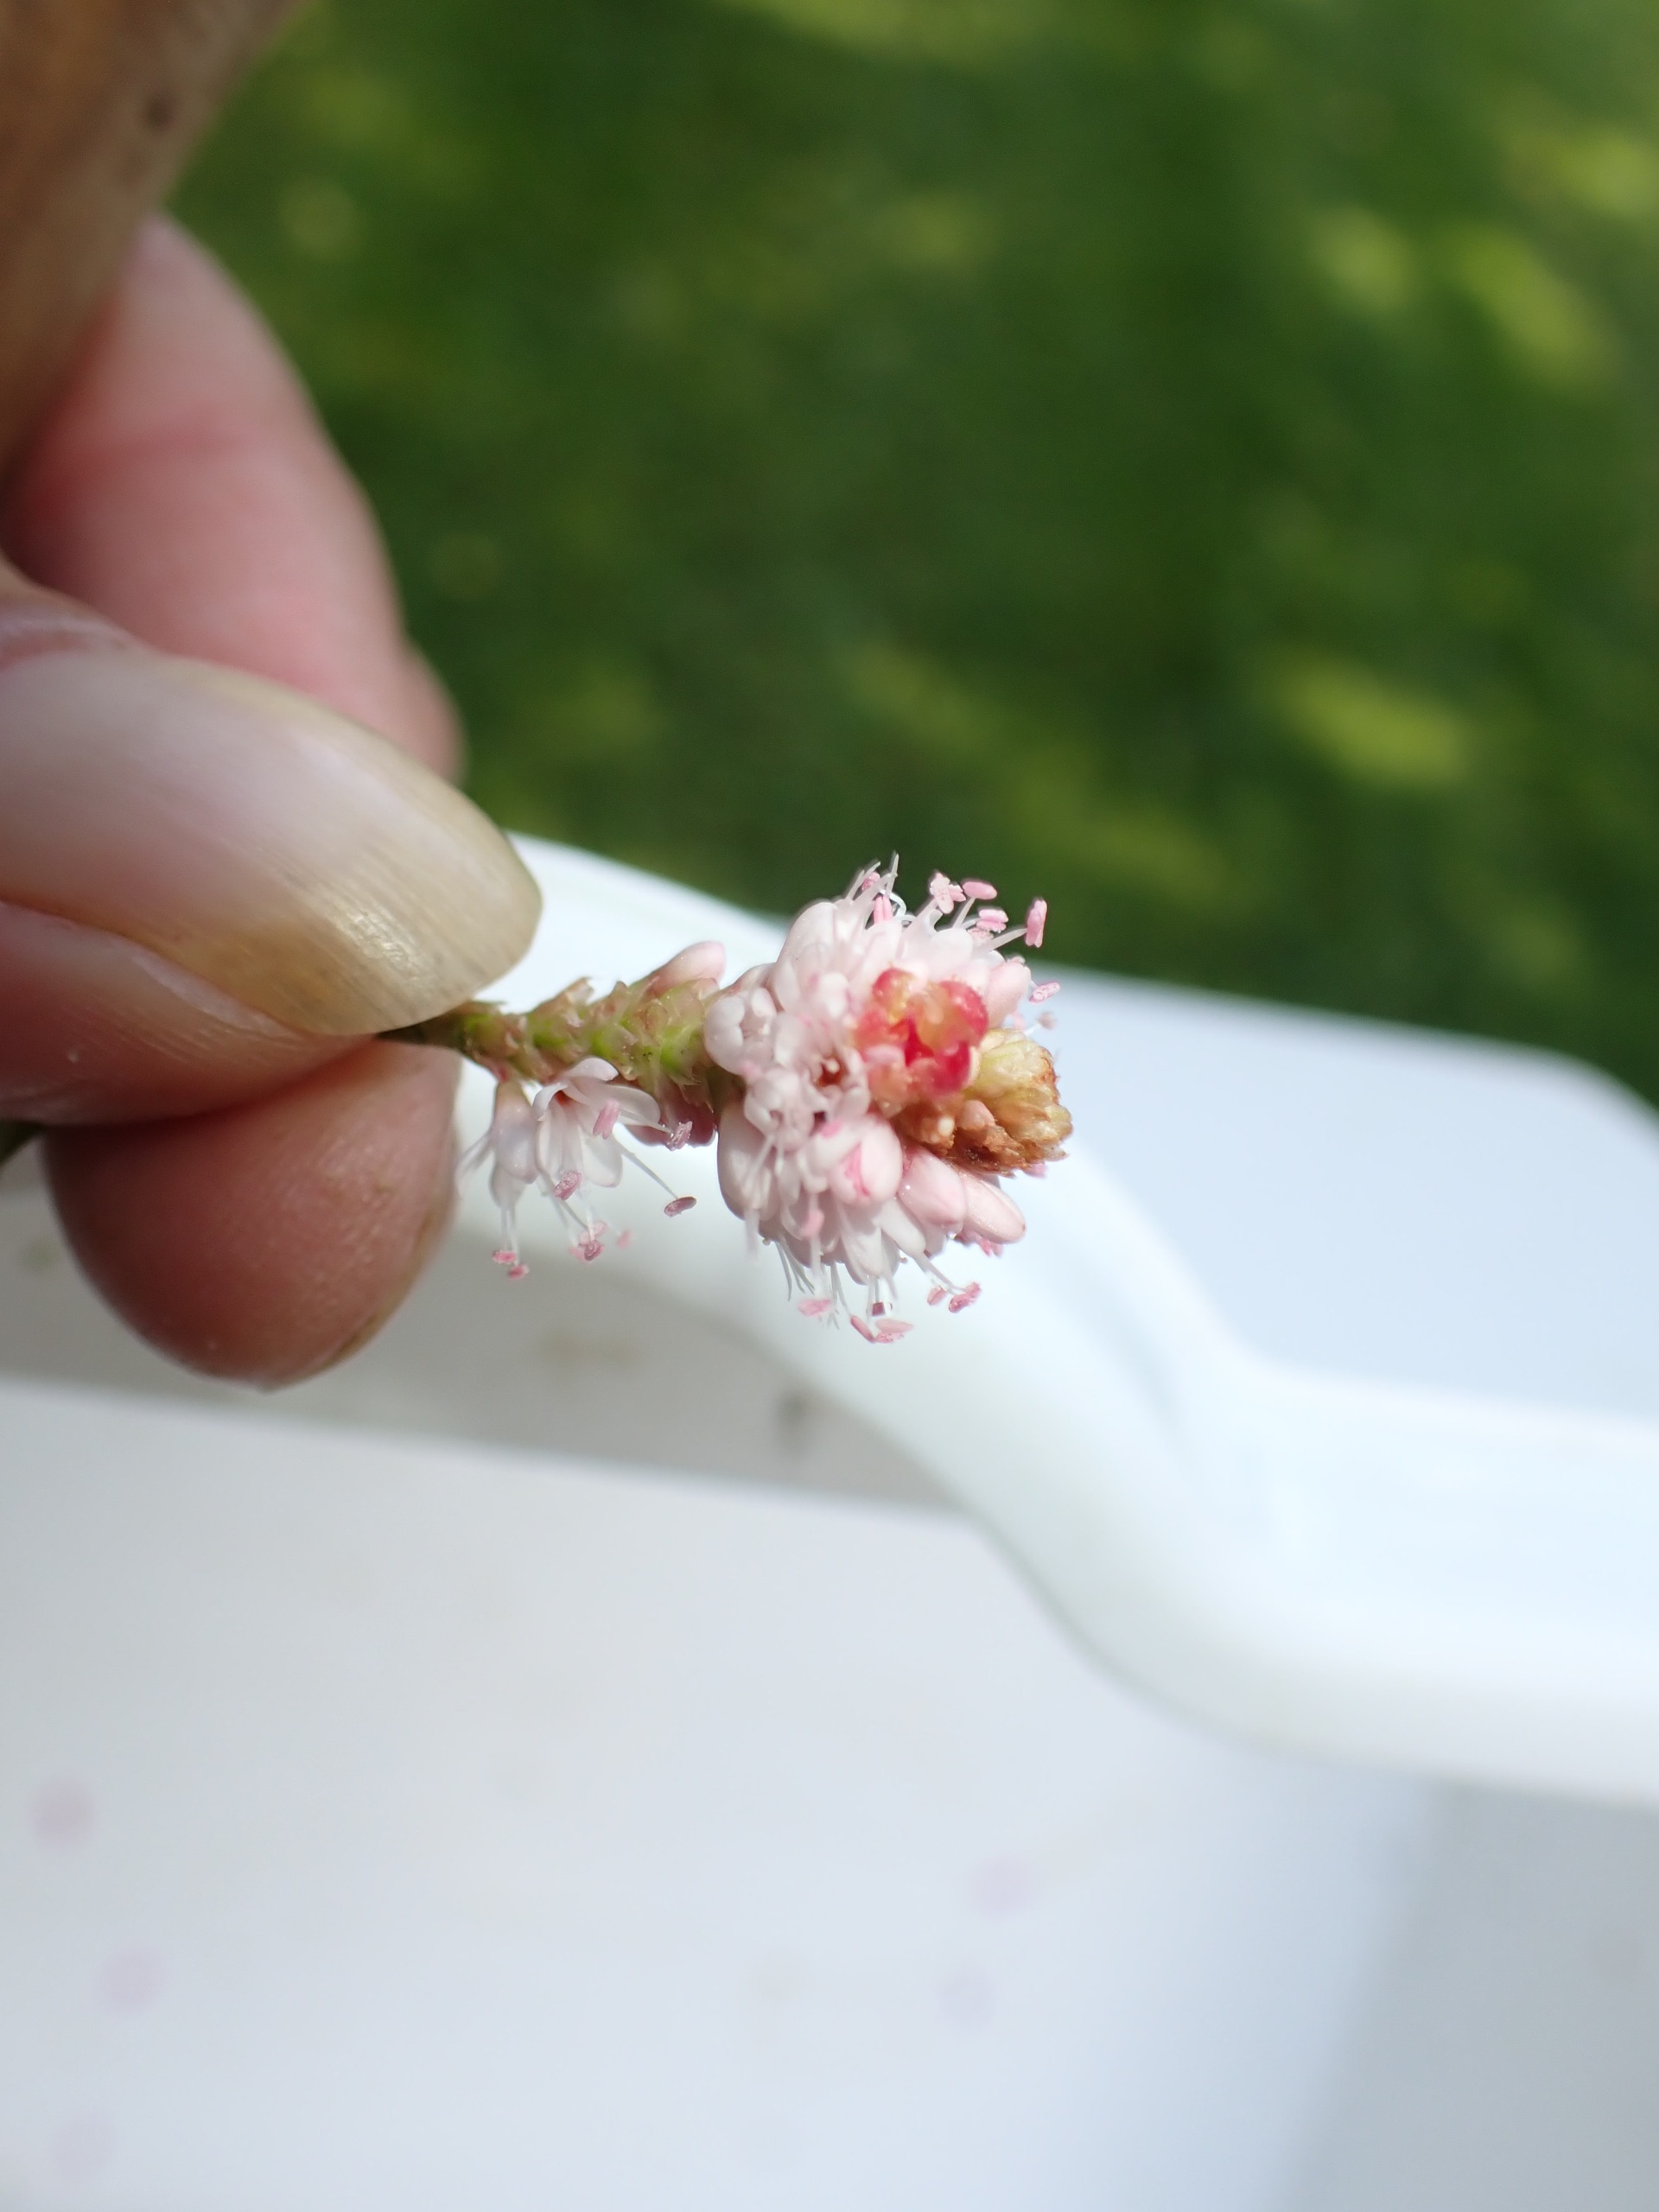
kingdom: Plantae
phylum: Tracheophyta
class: Magnoliopsida
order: Caryophyllales
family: Polygonaceae
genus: Persicaria
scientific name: Persicaria amphibia
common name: Vand-pileurt
